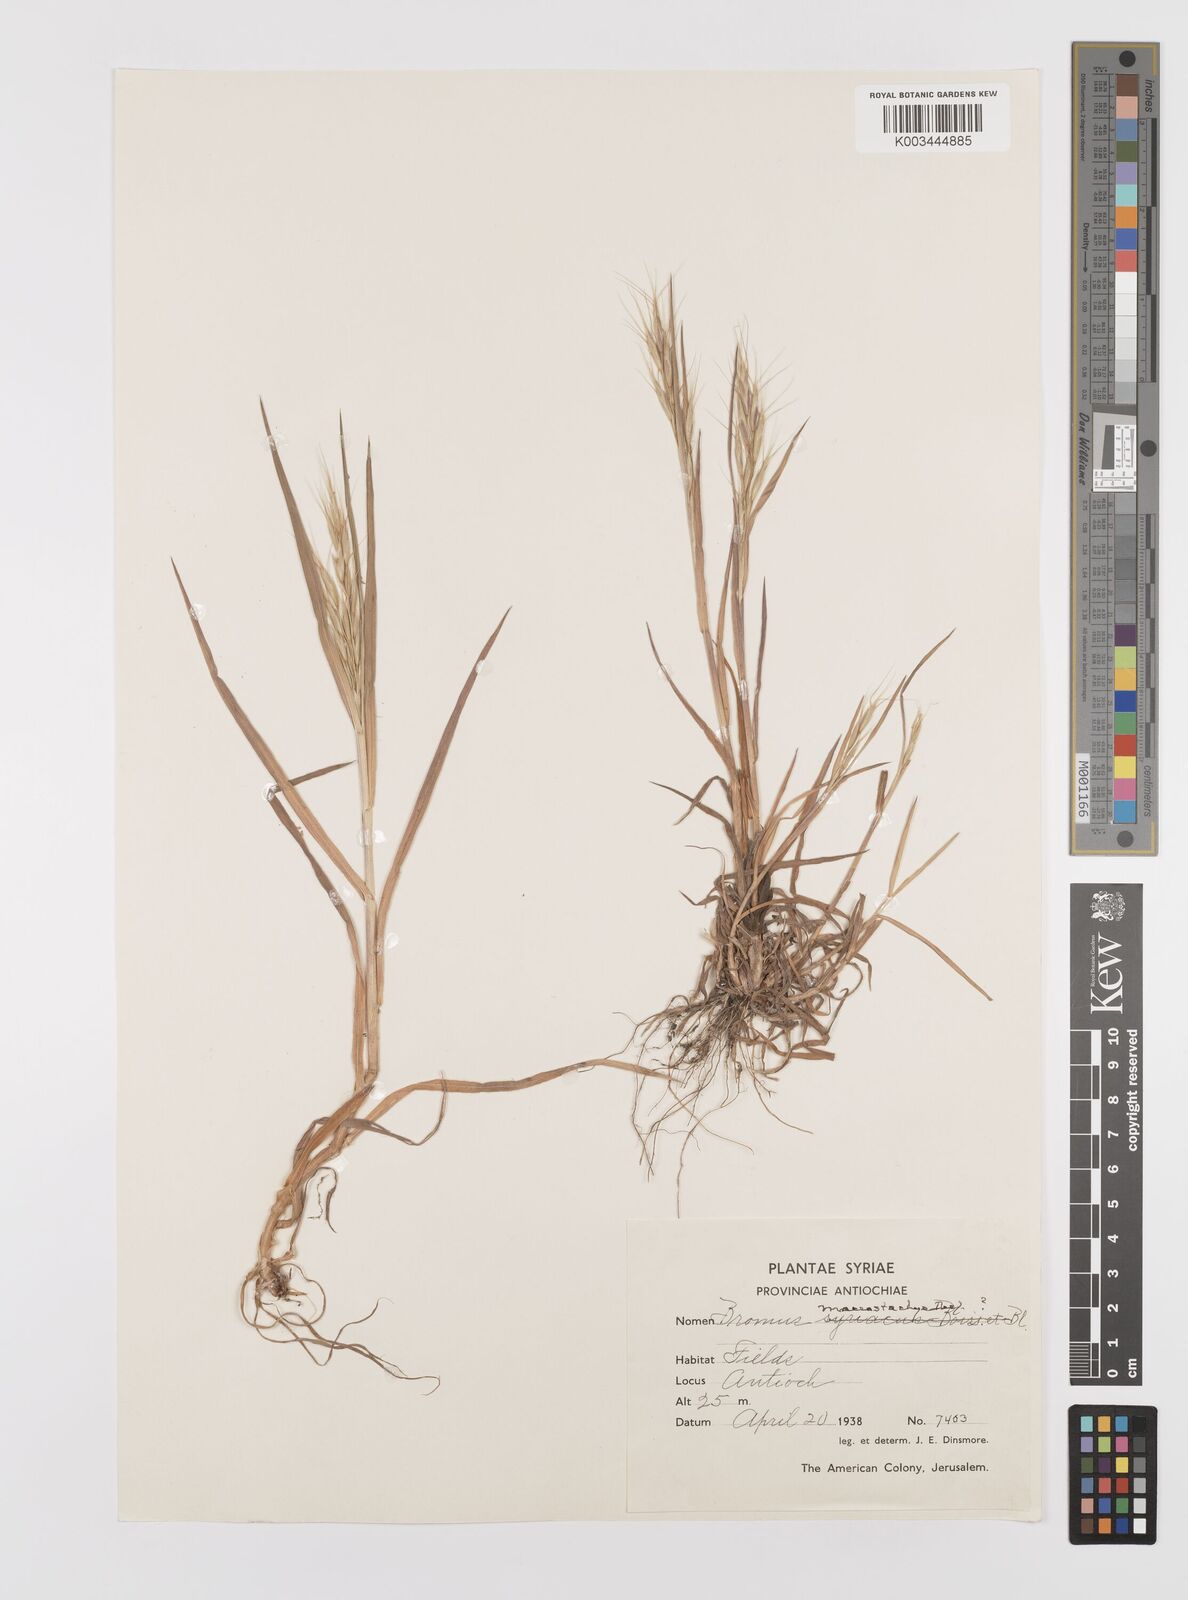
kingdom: Plantae
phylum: Tracheophyta
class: Liliopsida
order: Poales
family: Poaceae
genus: Bromus
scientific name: Bromus lanceolatus
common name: Mediterranean brome
